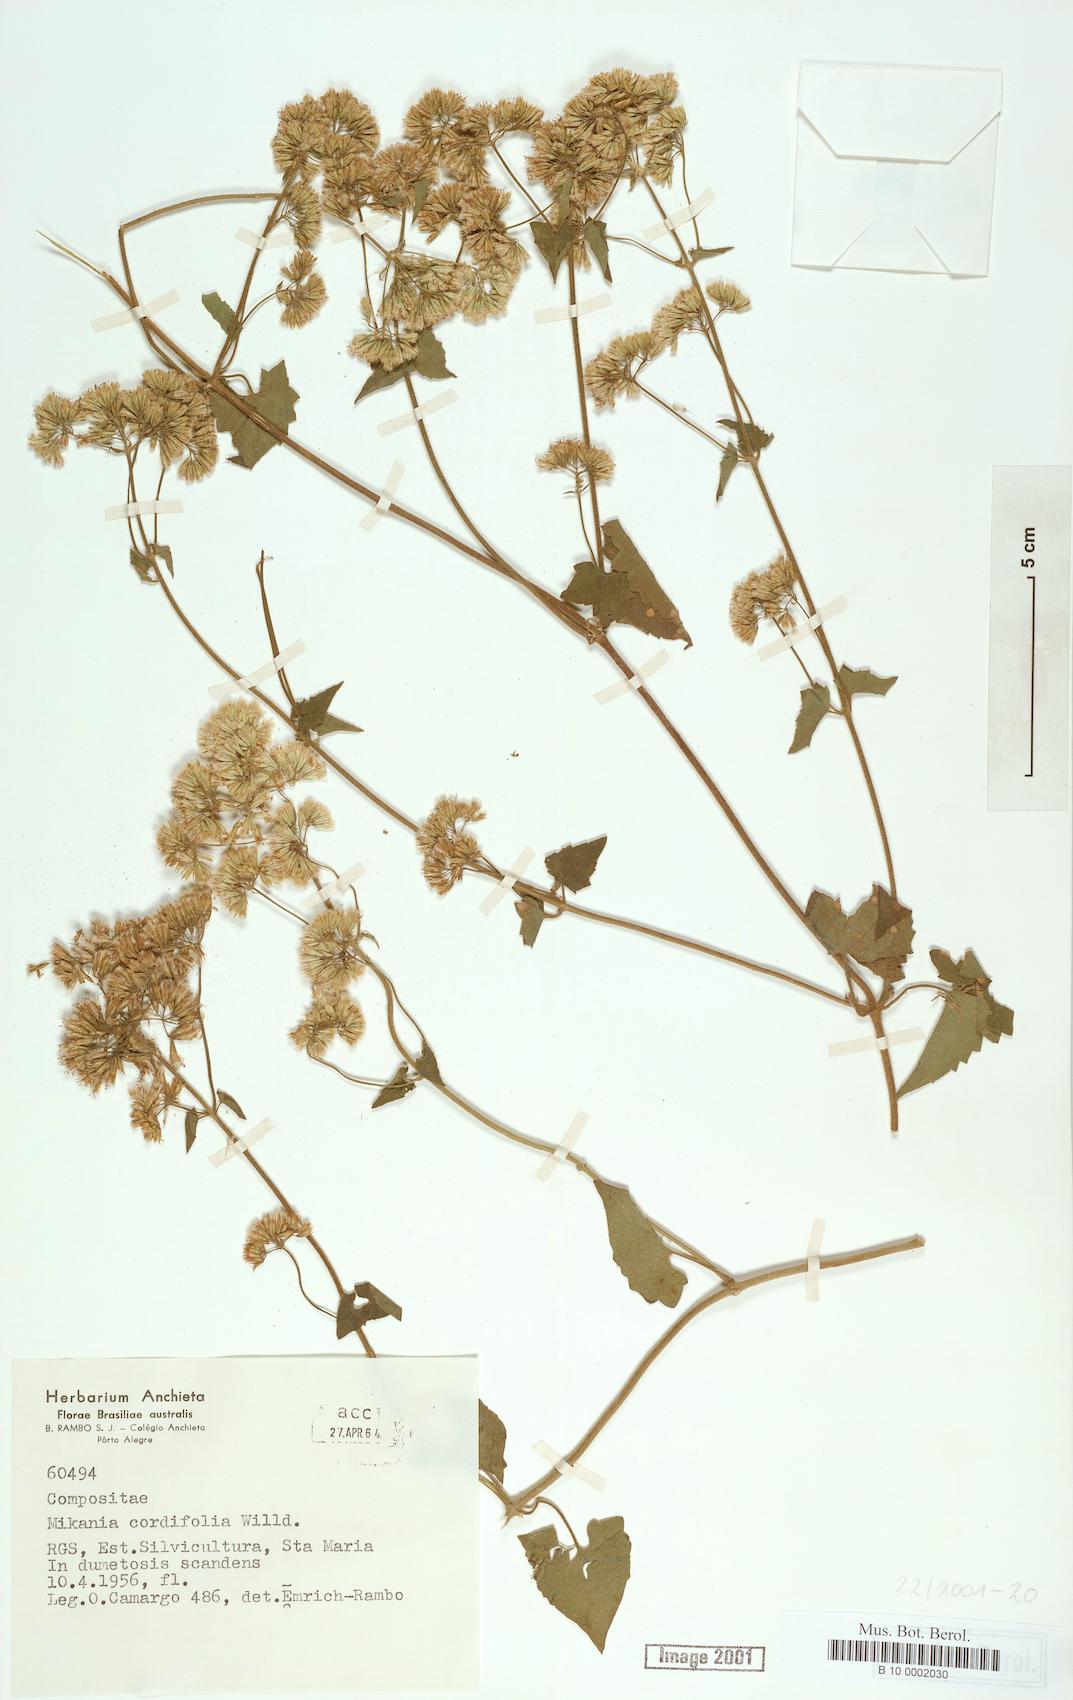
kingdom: Plantae
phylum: Tracheophyta
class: Magnoliopsida
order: Asterales
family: Asteraceae
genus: Mikania
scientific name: Mikania cordifolia
